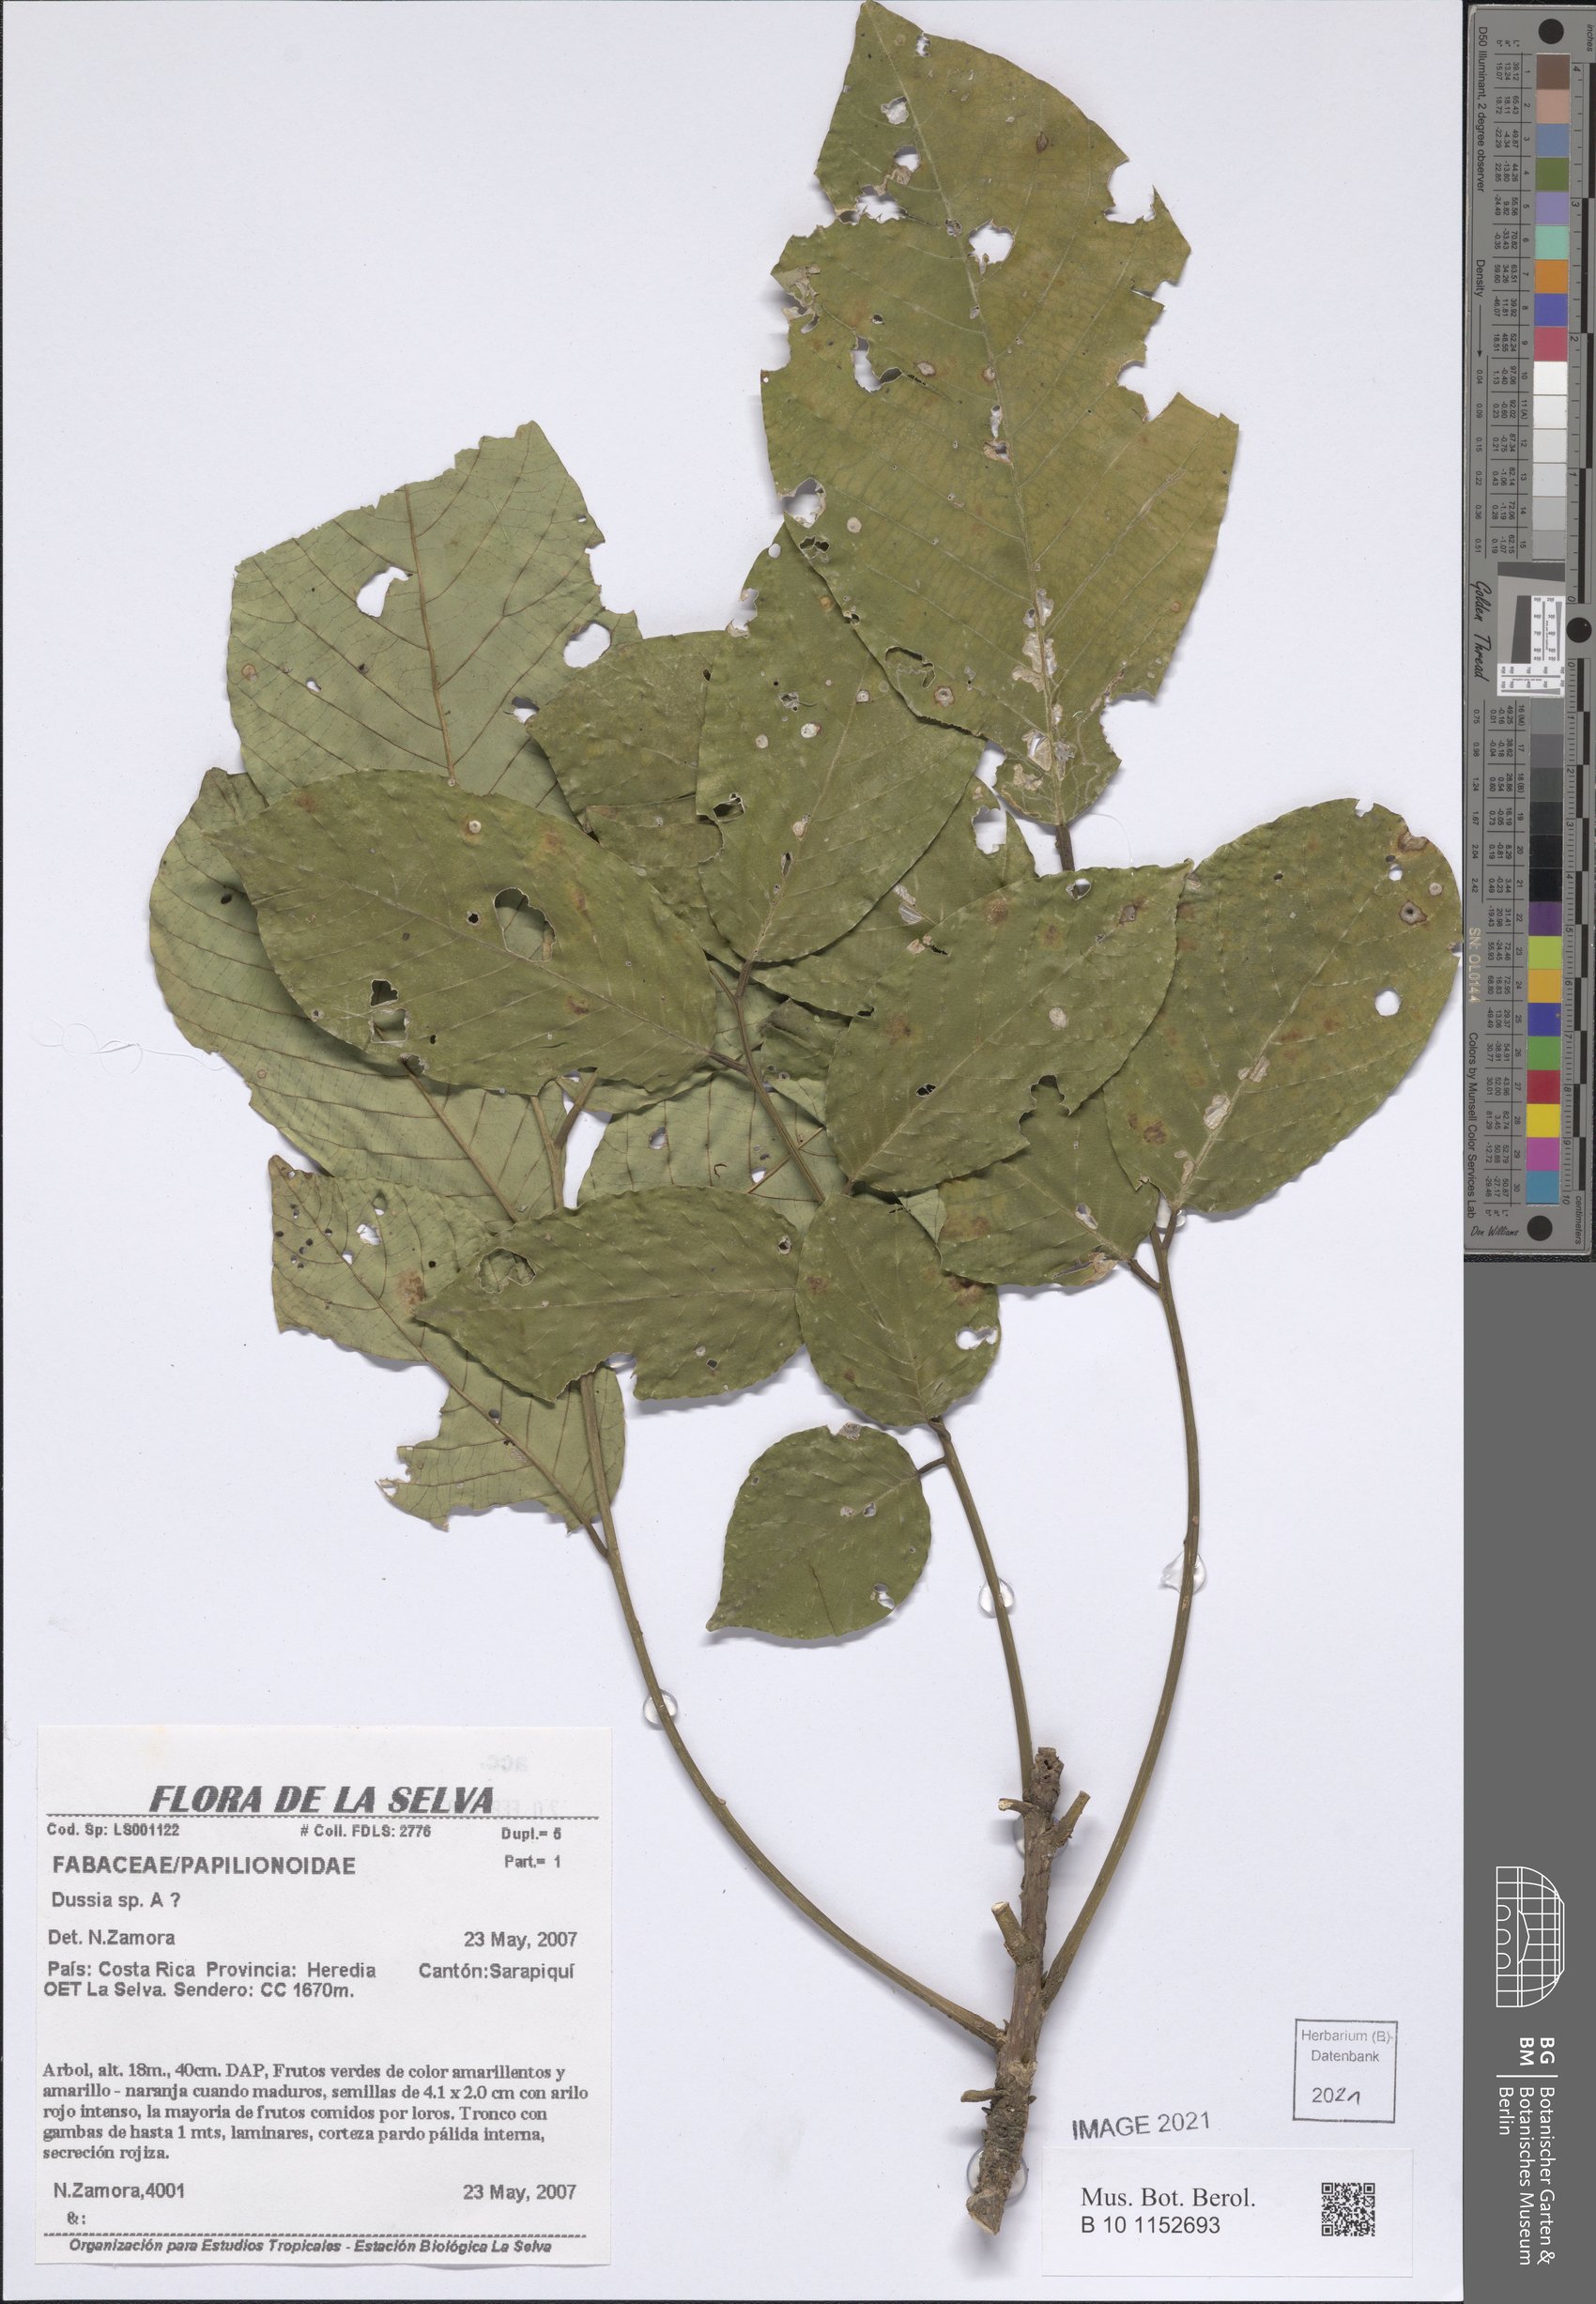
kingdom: Plantae
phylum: Tracheophyta
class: Magnoliopsida
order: Fabales
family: Fabaceae
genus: Dussia
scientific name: Dussia
